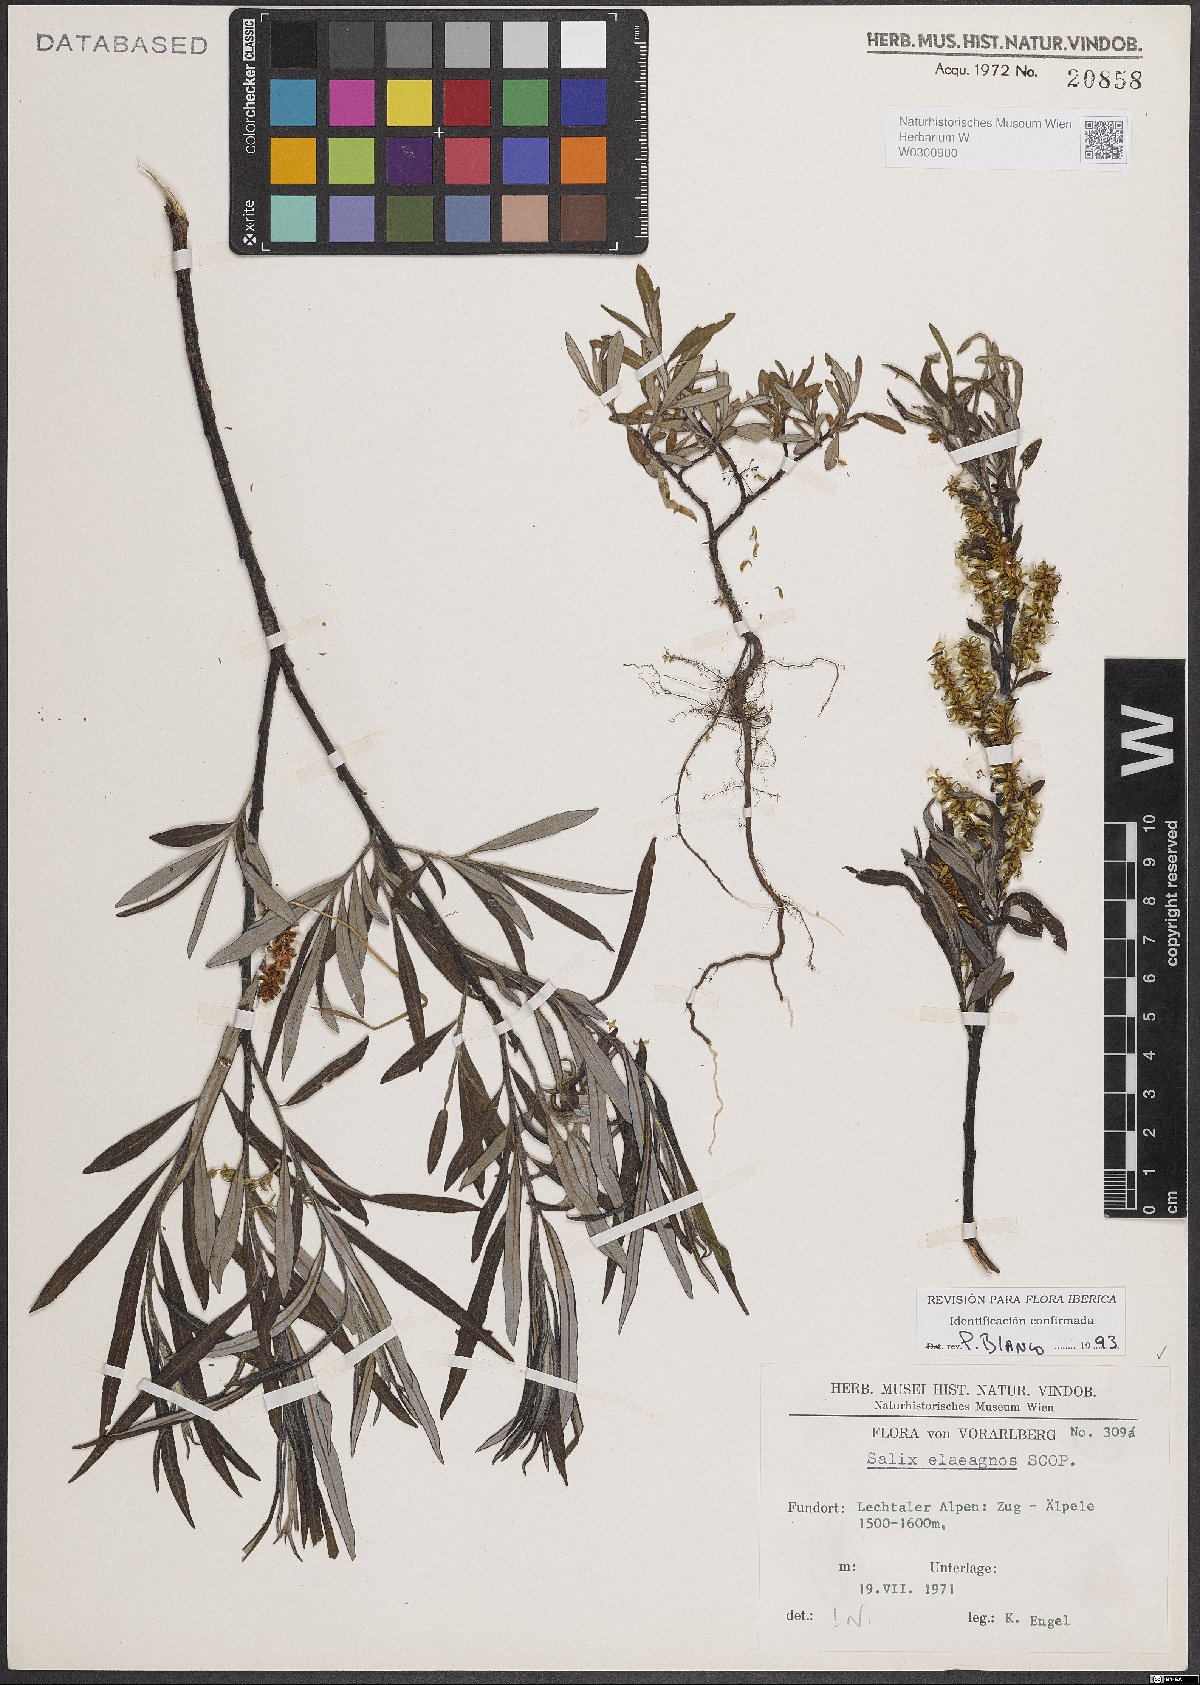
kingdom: Plantae
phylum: Tracheophyta
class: Magnoliopsida
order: Malpighiales
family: Salicaceae
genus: Salix
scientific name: Salix eleagnos
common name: Elaeagnus willow
